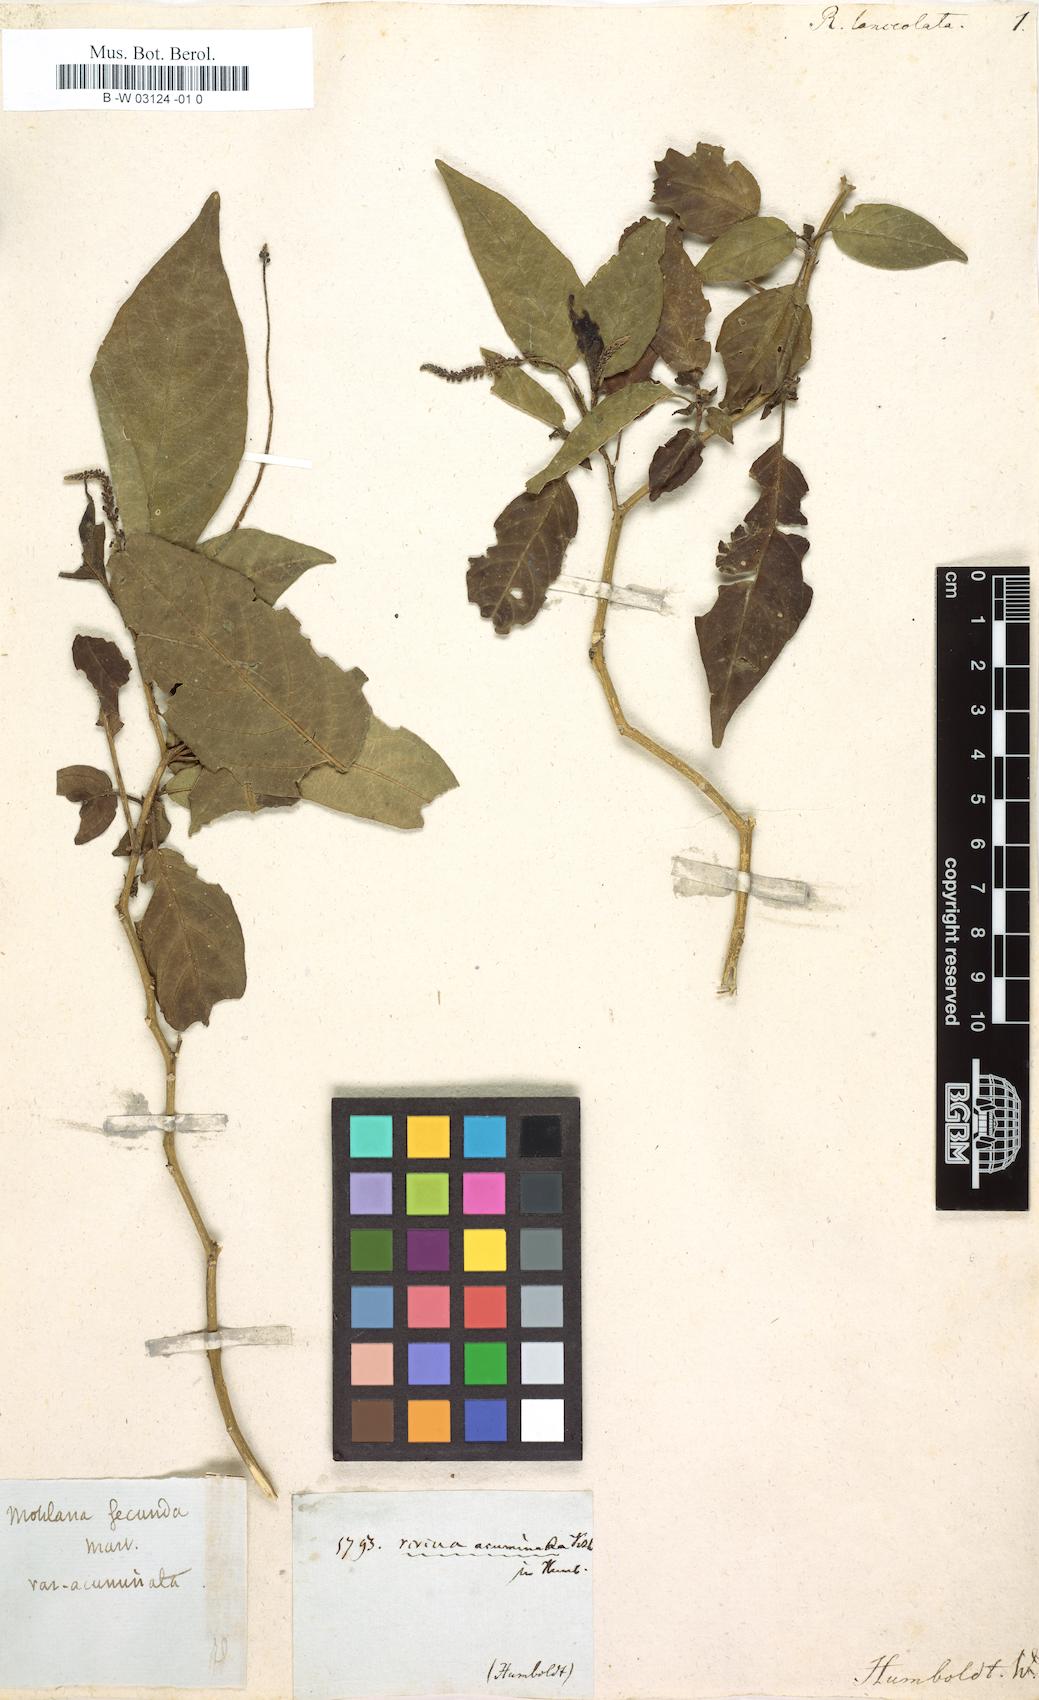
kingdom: Plantae
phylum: Tracheophyta
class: Magnoliopsida
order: Caryophyllales
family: Phytolaccaceae
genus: Rivina
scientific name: Rivina humilis
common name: Rougeplant
